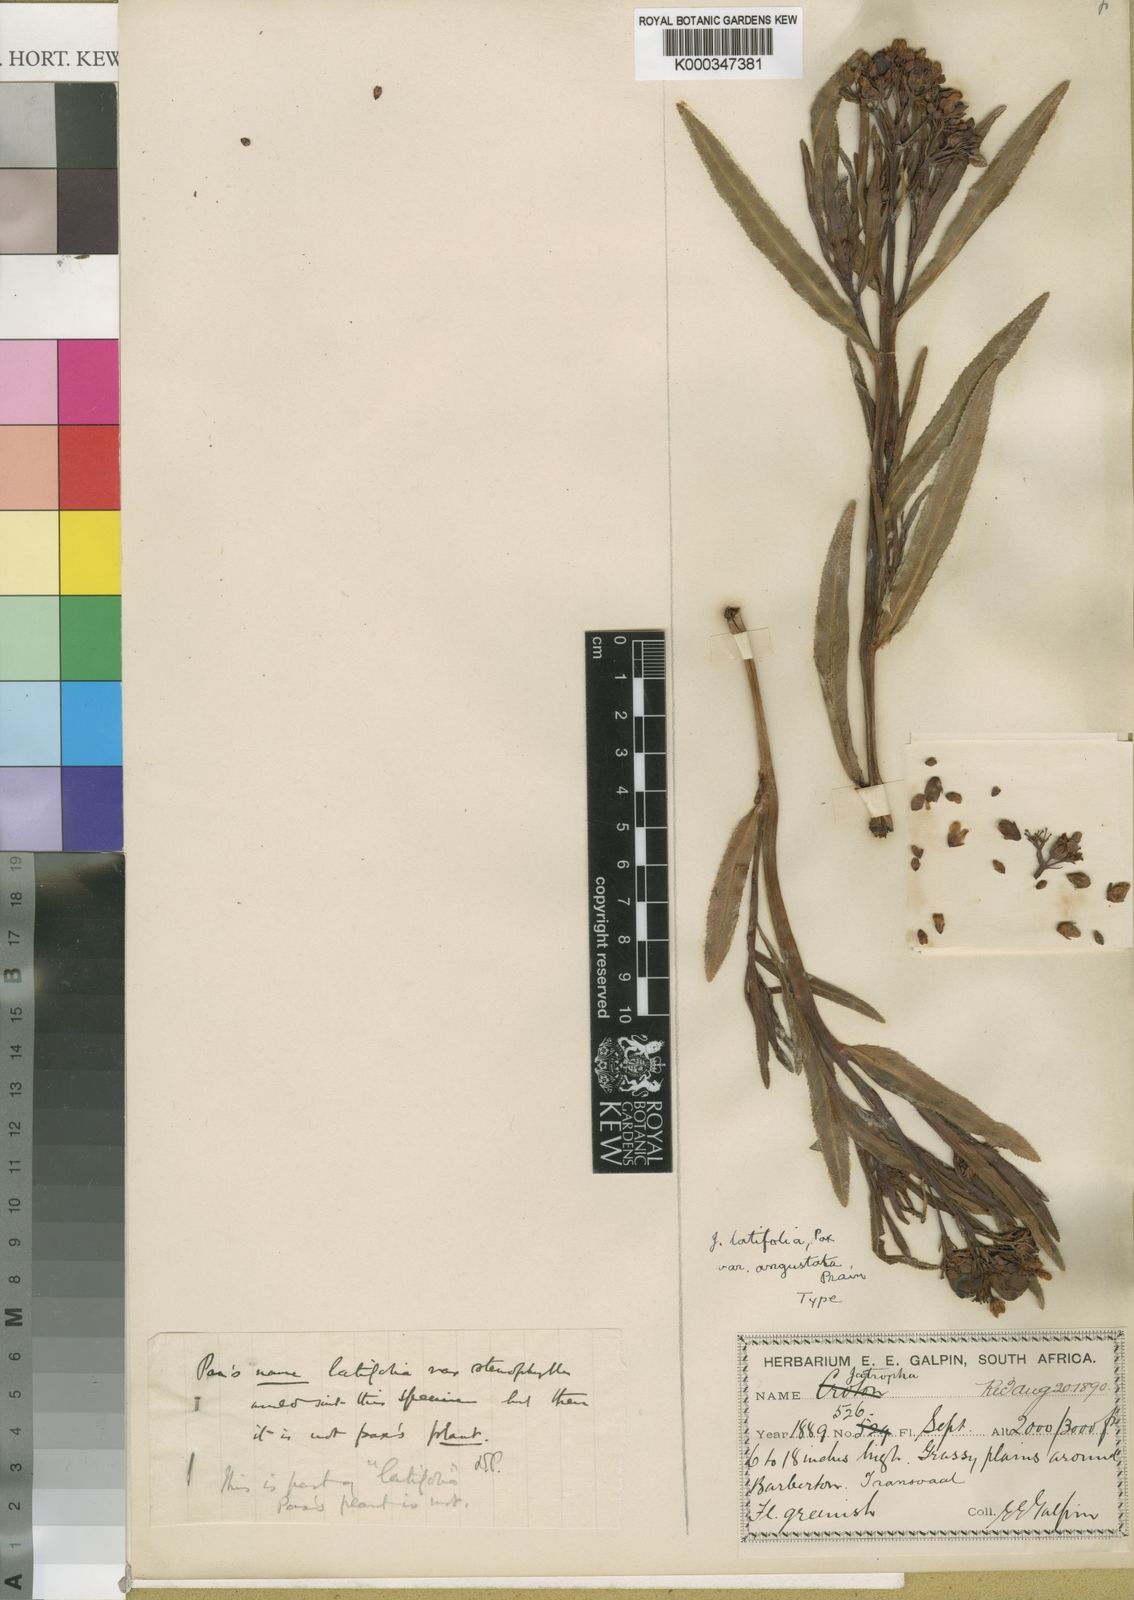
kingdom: Plantae
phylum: Tracheophyta
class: Magnoliopsida
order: Malpighiales
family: Euphorbiaceae
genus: Jatropha
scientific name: Jatropha latifolia
